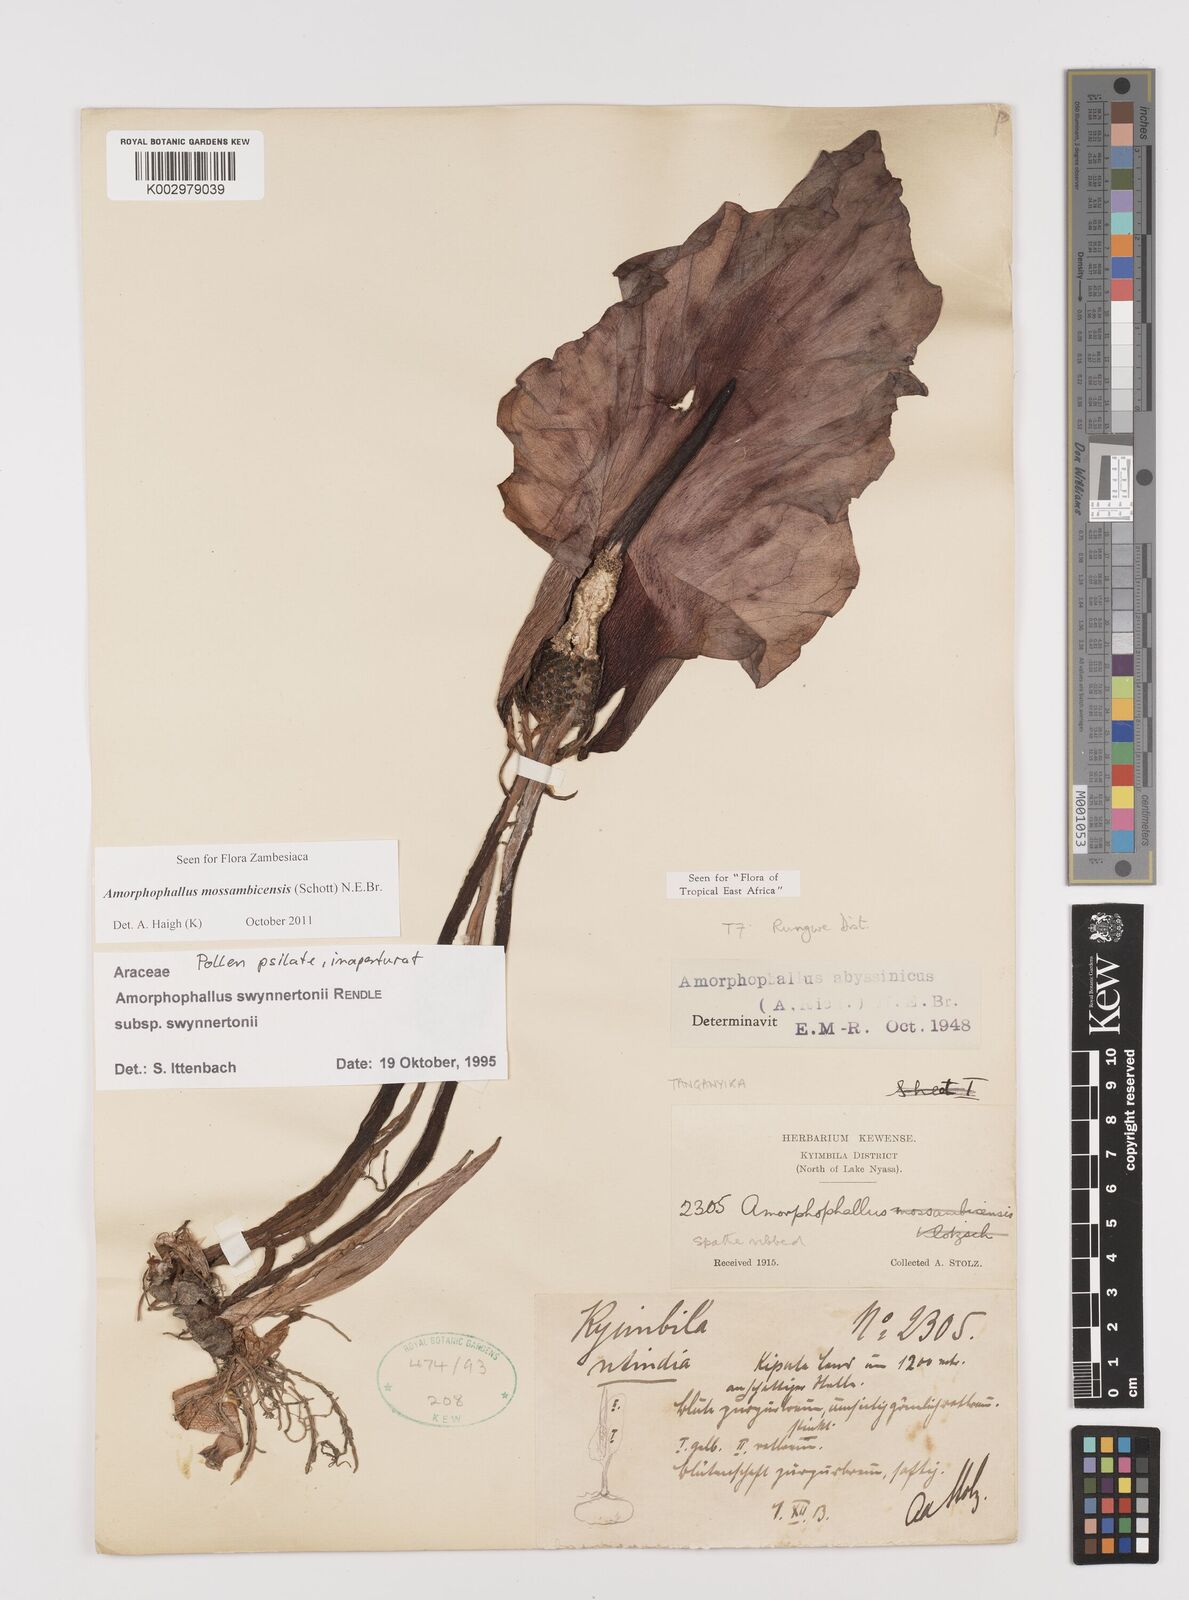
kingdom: Plantae
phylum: Tracheophyta
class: Liliopsida
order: Alismatales
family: Araceae
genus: Amorphophallus
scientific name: Amorphophallus mossambicensis
